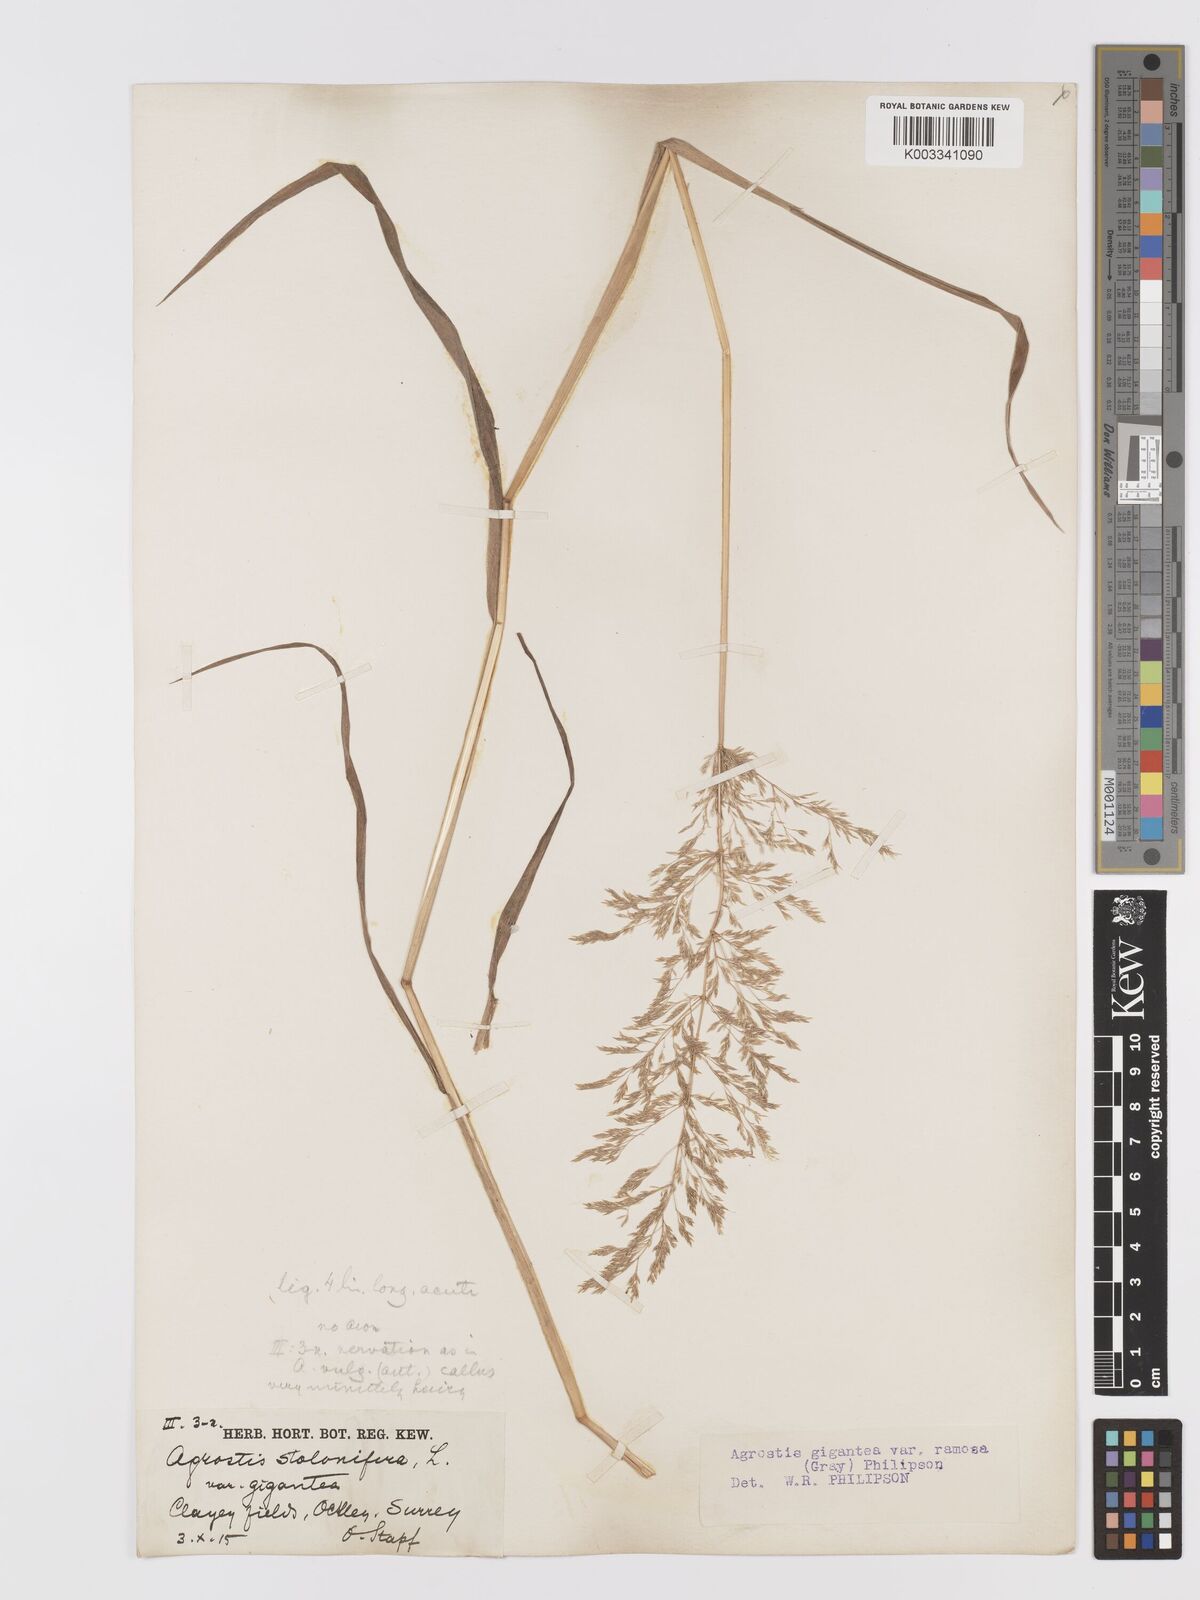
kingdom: Plantae
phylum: Tracheophyta
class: Liliopsida
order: Poales
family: Poaceae
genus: Agrostis
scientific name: Agrostis gigantea
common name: Black bent
